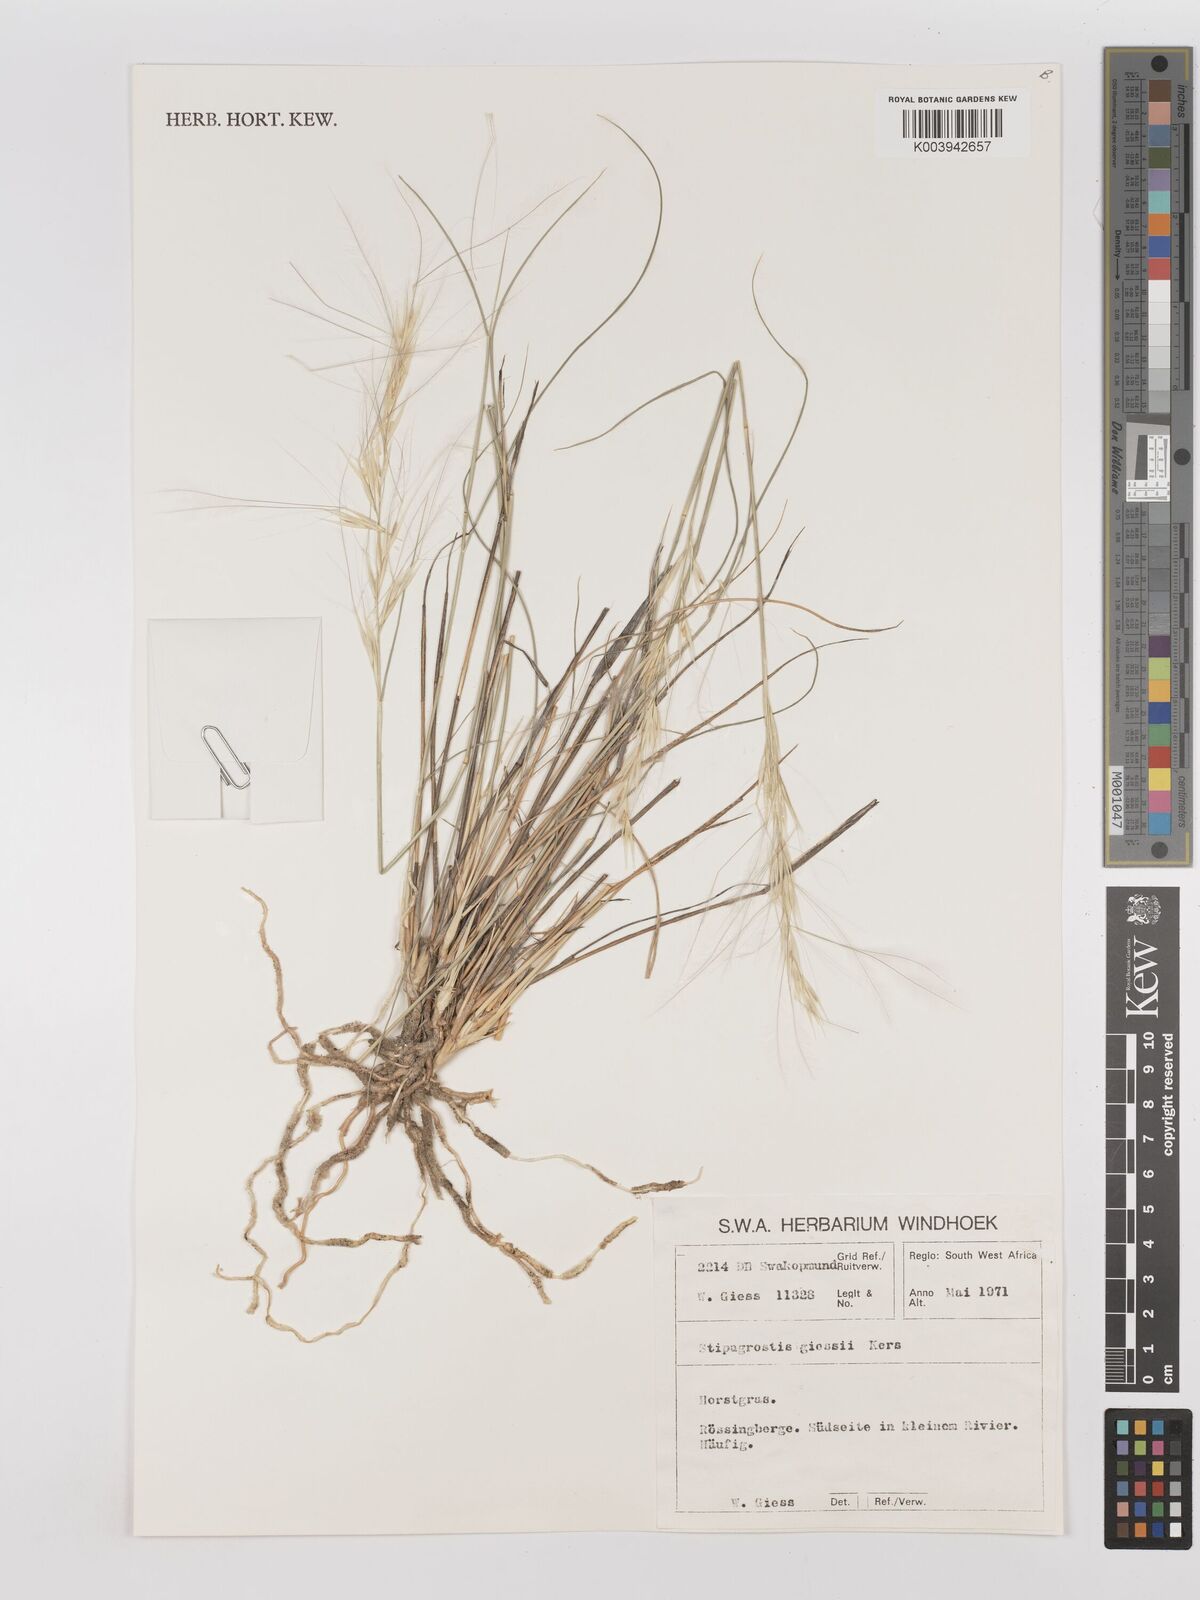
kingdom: Plantae
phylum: Tracheophyta
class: Liliopsida
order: Poales
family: Poaceae
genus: Stipagrostis
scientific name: Stipagrostis giessii
